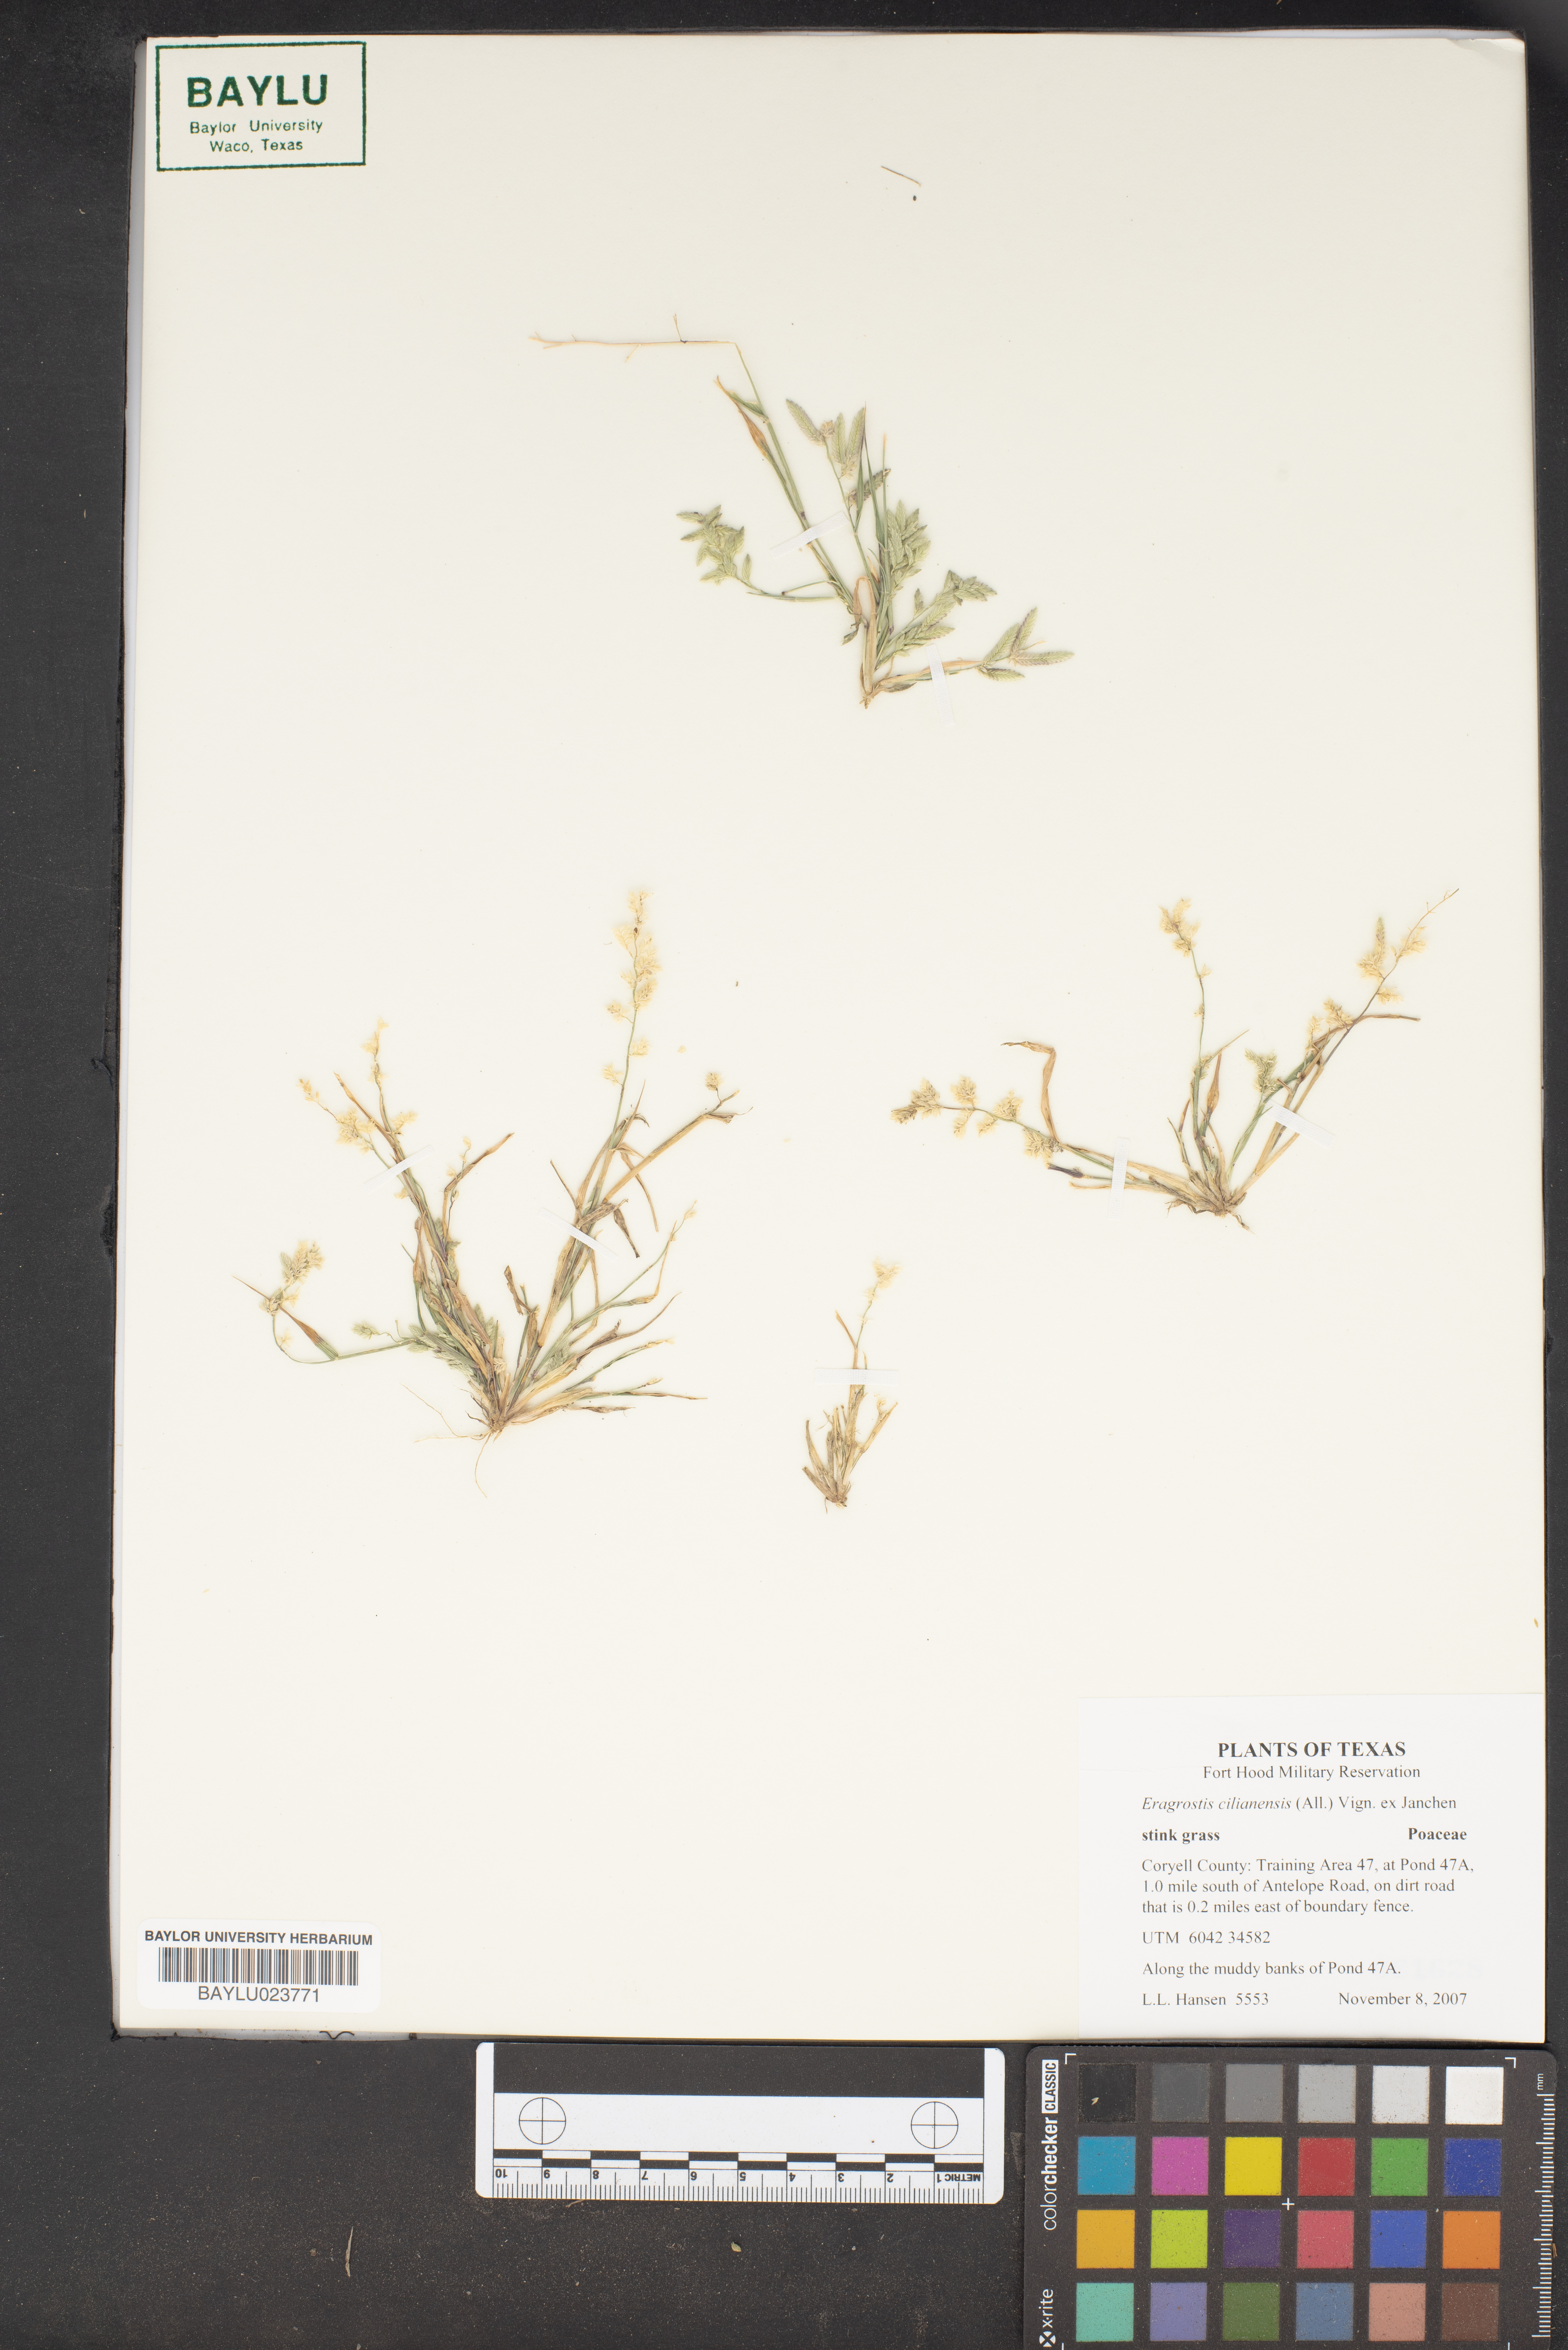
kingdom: Plantae
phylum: Tracheophyta
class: Liliopsida
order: Poales
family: Poaceae
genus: Eragrostis
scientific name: Eragrostis cilianensis
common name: Stinkgrass
